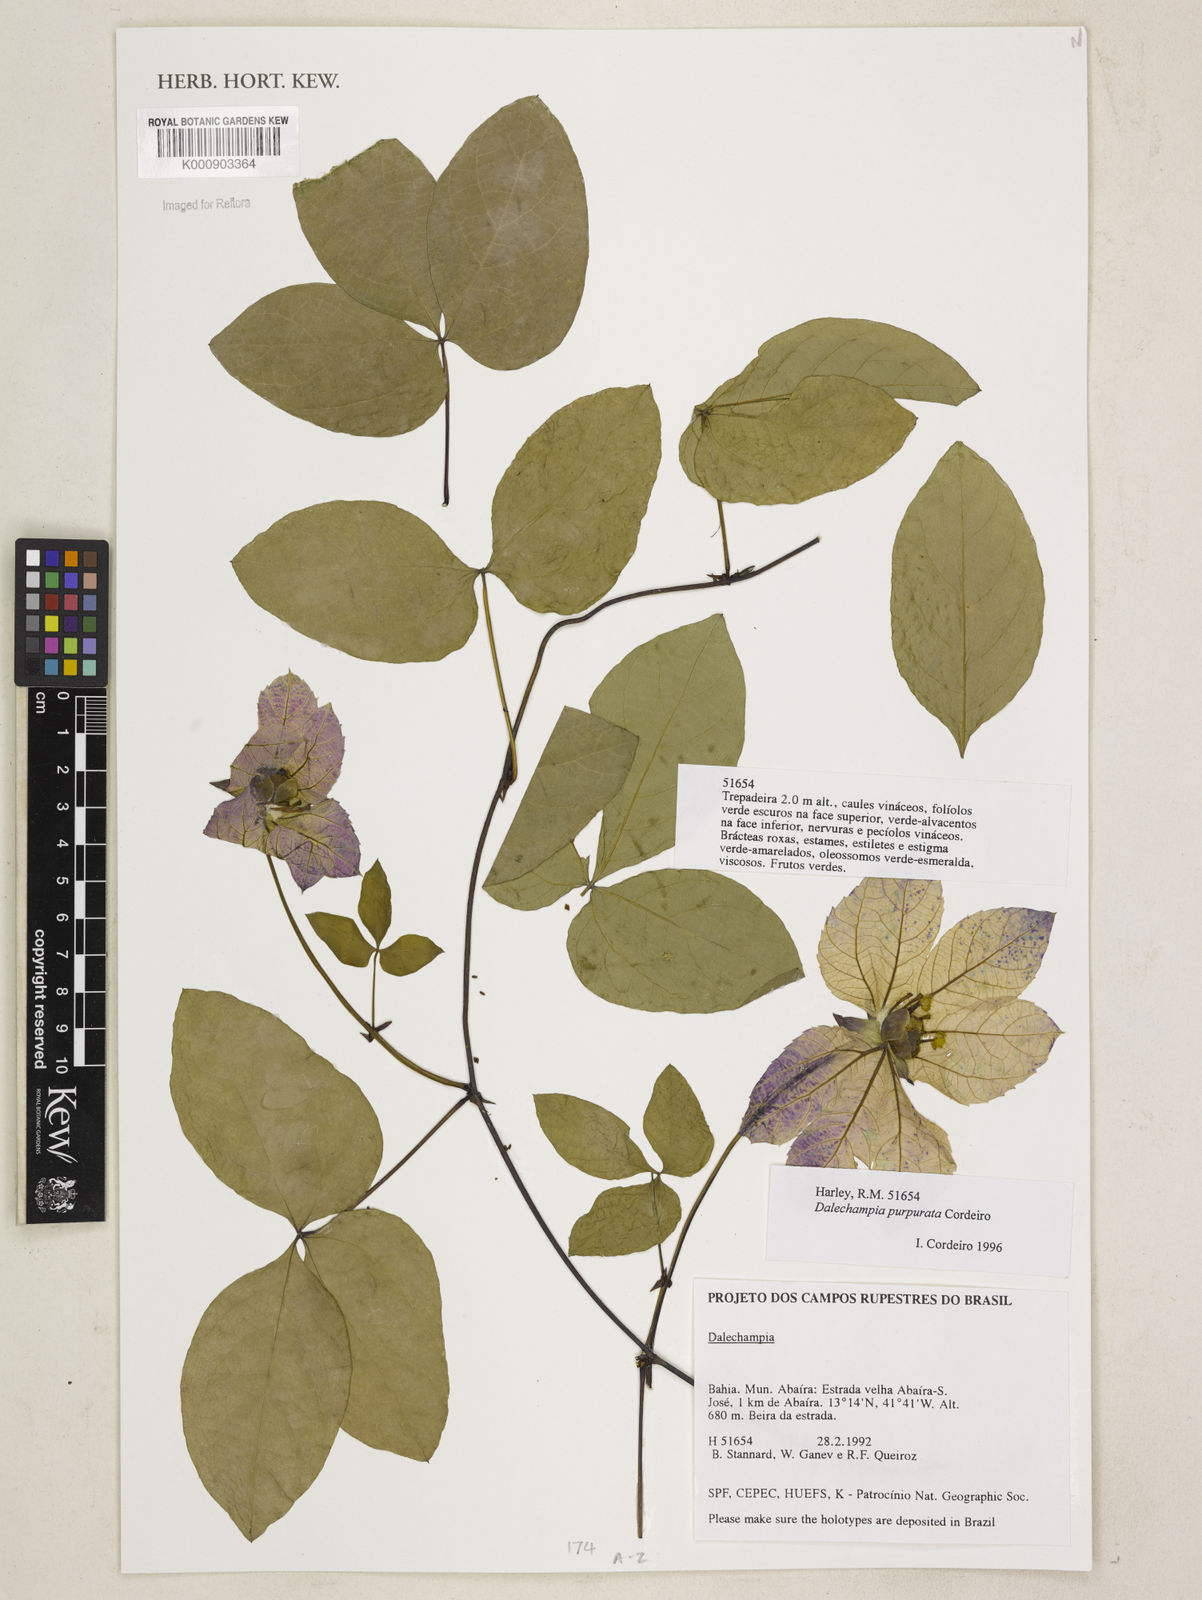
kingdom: Plantae
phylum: Tracheophyta
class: Magnoliopsida
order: Malpighiales
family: Euphorbiaceae
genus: Dalechampia
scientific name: Dalechampia purpurata
